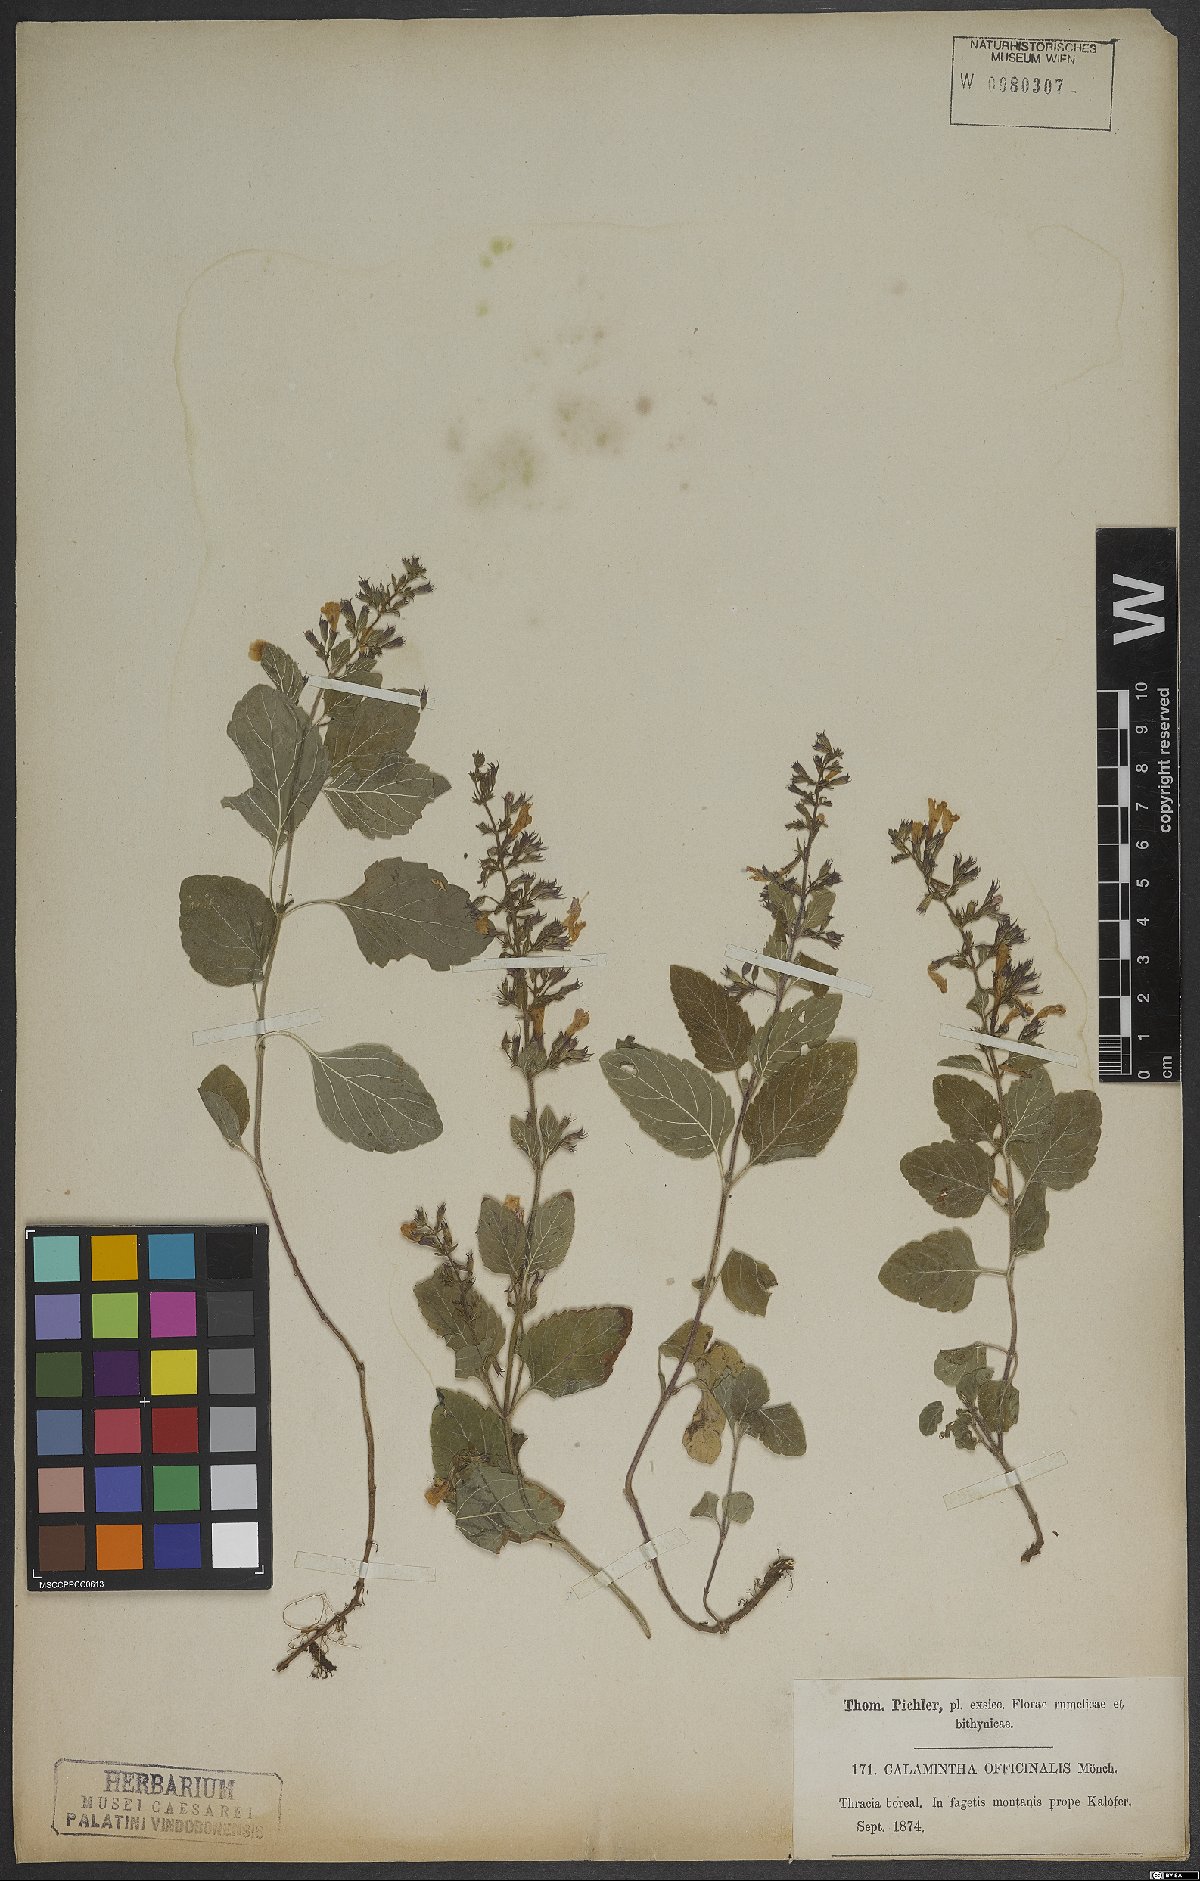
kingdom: Plantae
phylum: Tracheophyta
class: Magnoliopsida
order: Lamiales
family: Lamiaceae
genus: Clinopodium
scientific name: Clinopodium nepeta
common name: Lesser calamint
